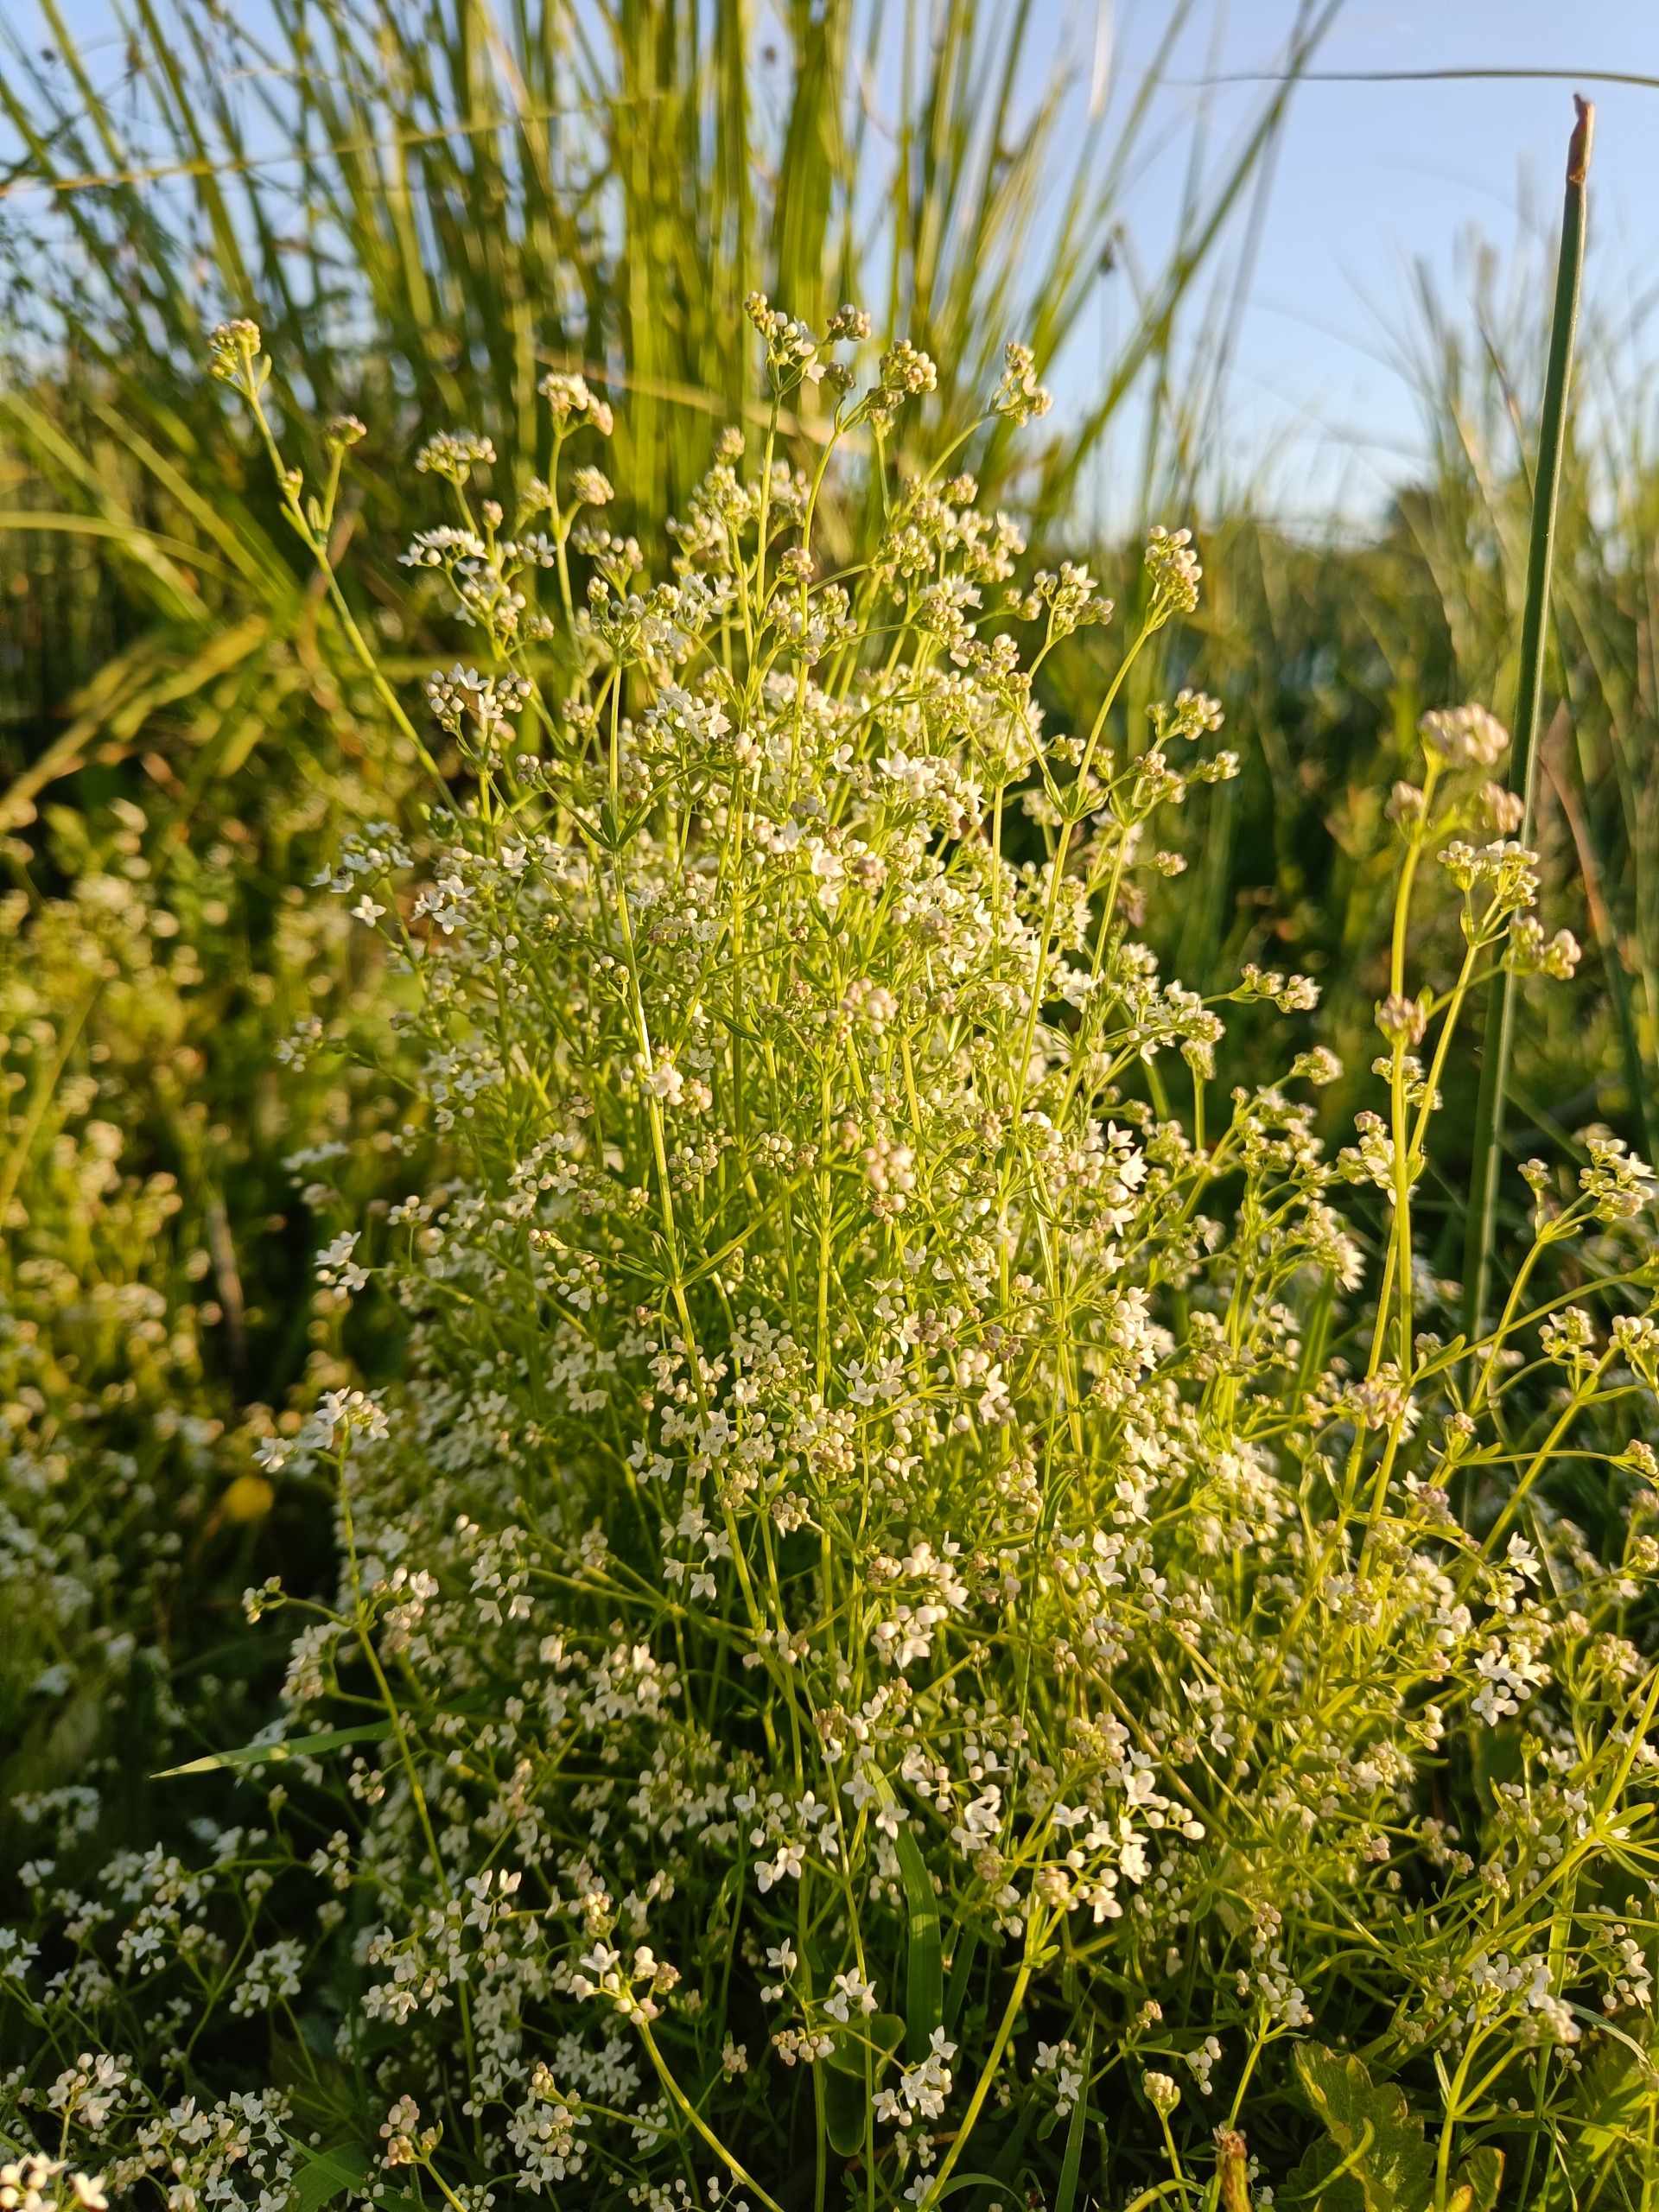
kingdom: Plantae
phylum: Tracheophyta
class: Magnoliopsida
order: Gentianales
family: Rubiaceae
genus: Galium
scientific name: Galium palustre
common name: Kær-snerre
